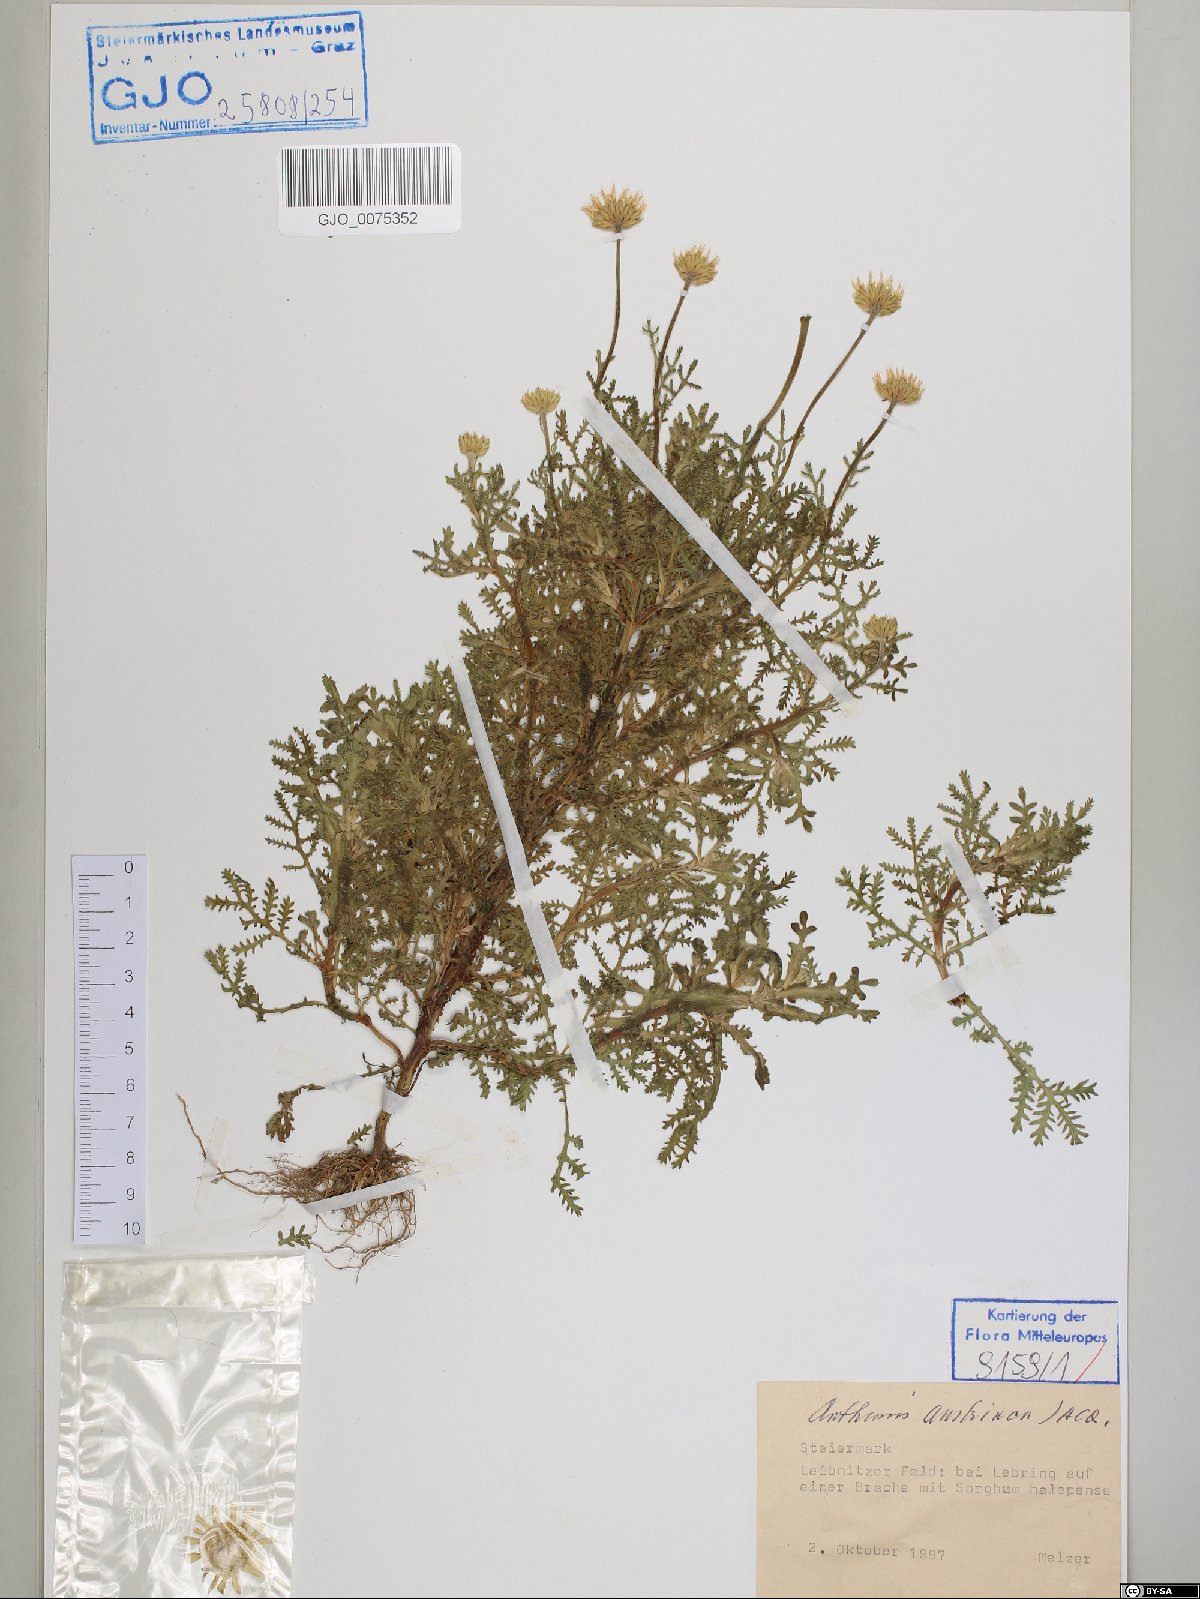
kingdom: Plantae
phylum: Tracheophyta
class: Magnoliopsida
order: Asterales
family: Asteraceae
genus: Cota
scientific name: Cota austriaca
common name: Austrian chamomile
